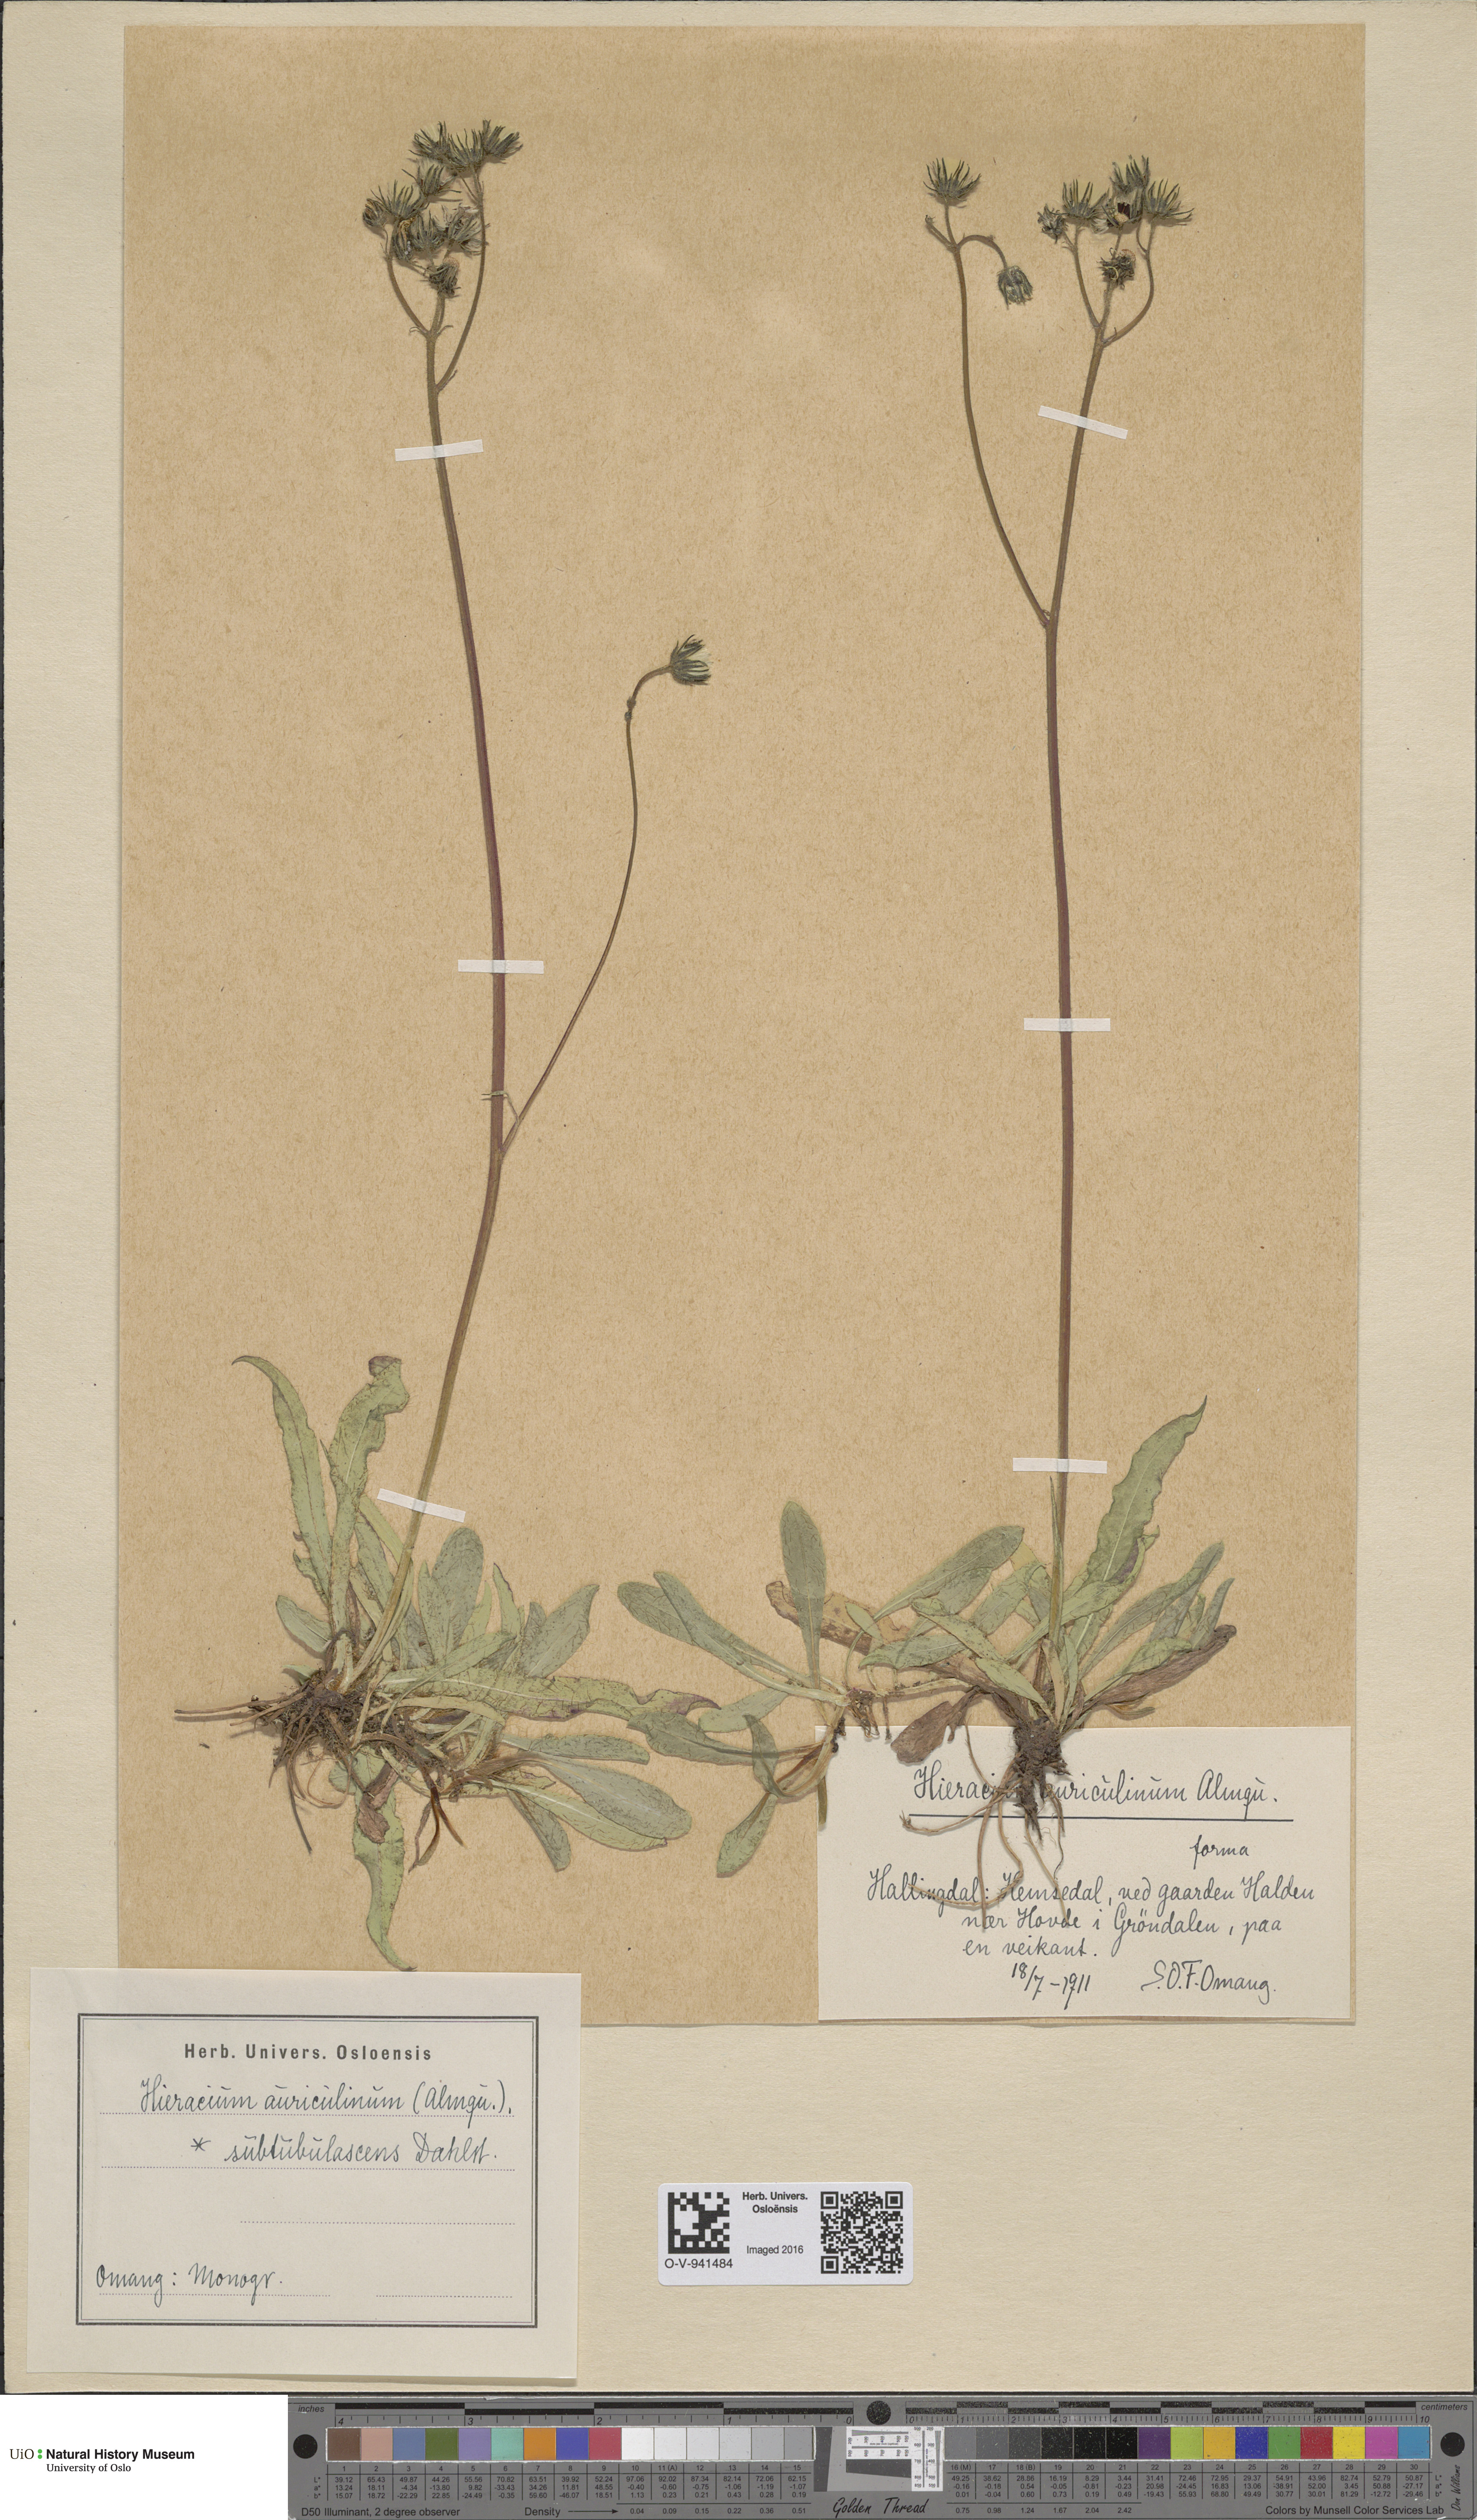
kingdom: Plantae
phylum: Tracheophyta
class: Magnoliopsida
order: Asterales
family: Asteraceae
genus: Pilosella
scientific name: Pilosella dubia
